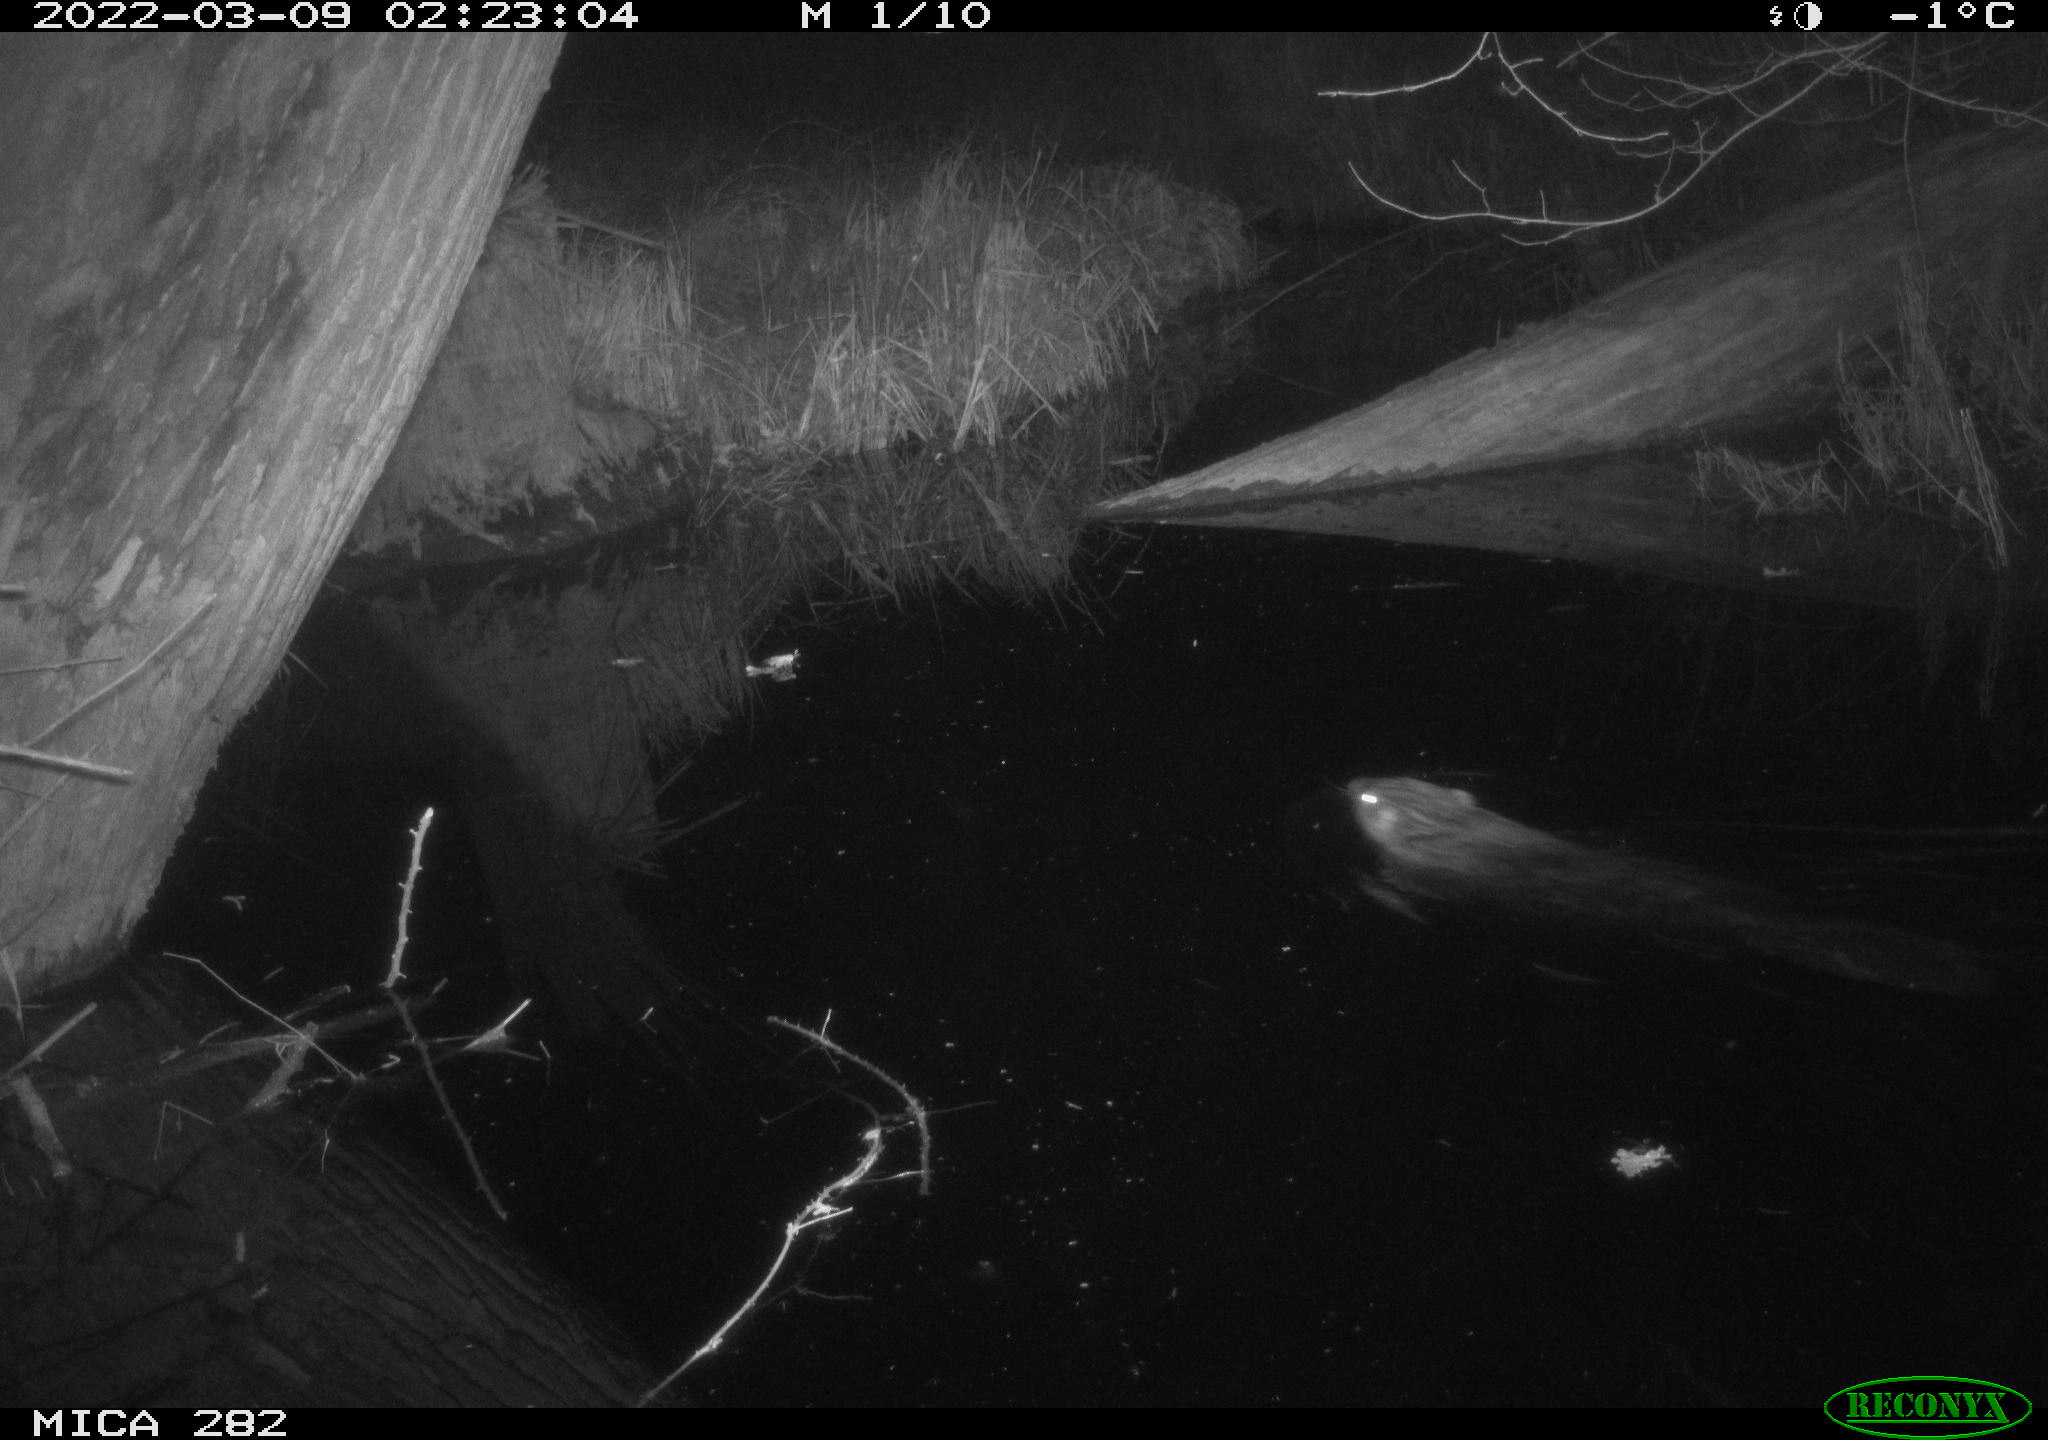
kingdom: Animalia
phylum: Chordata
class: Mammalia
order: Rodentia
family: Castoridae
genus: Castor
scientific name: Castor fiber
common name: Eurasian beaver
